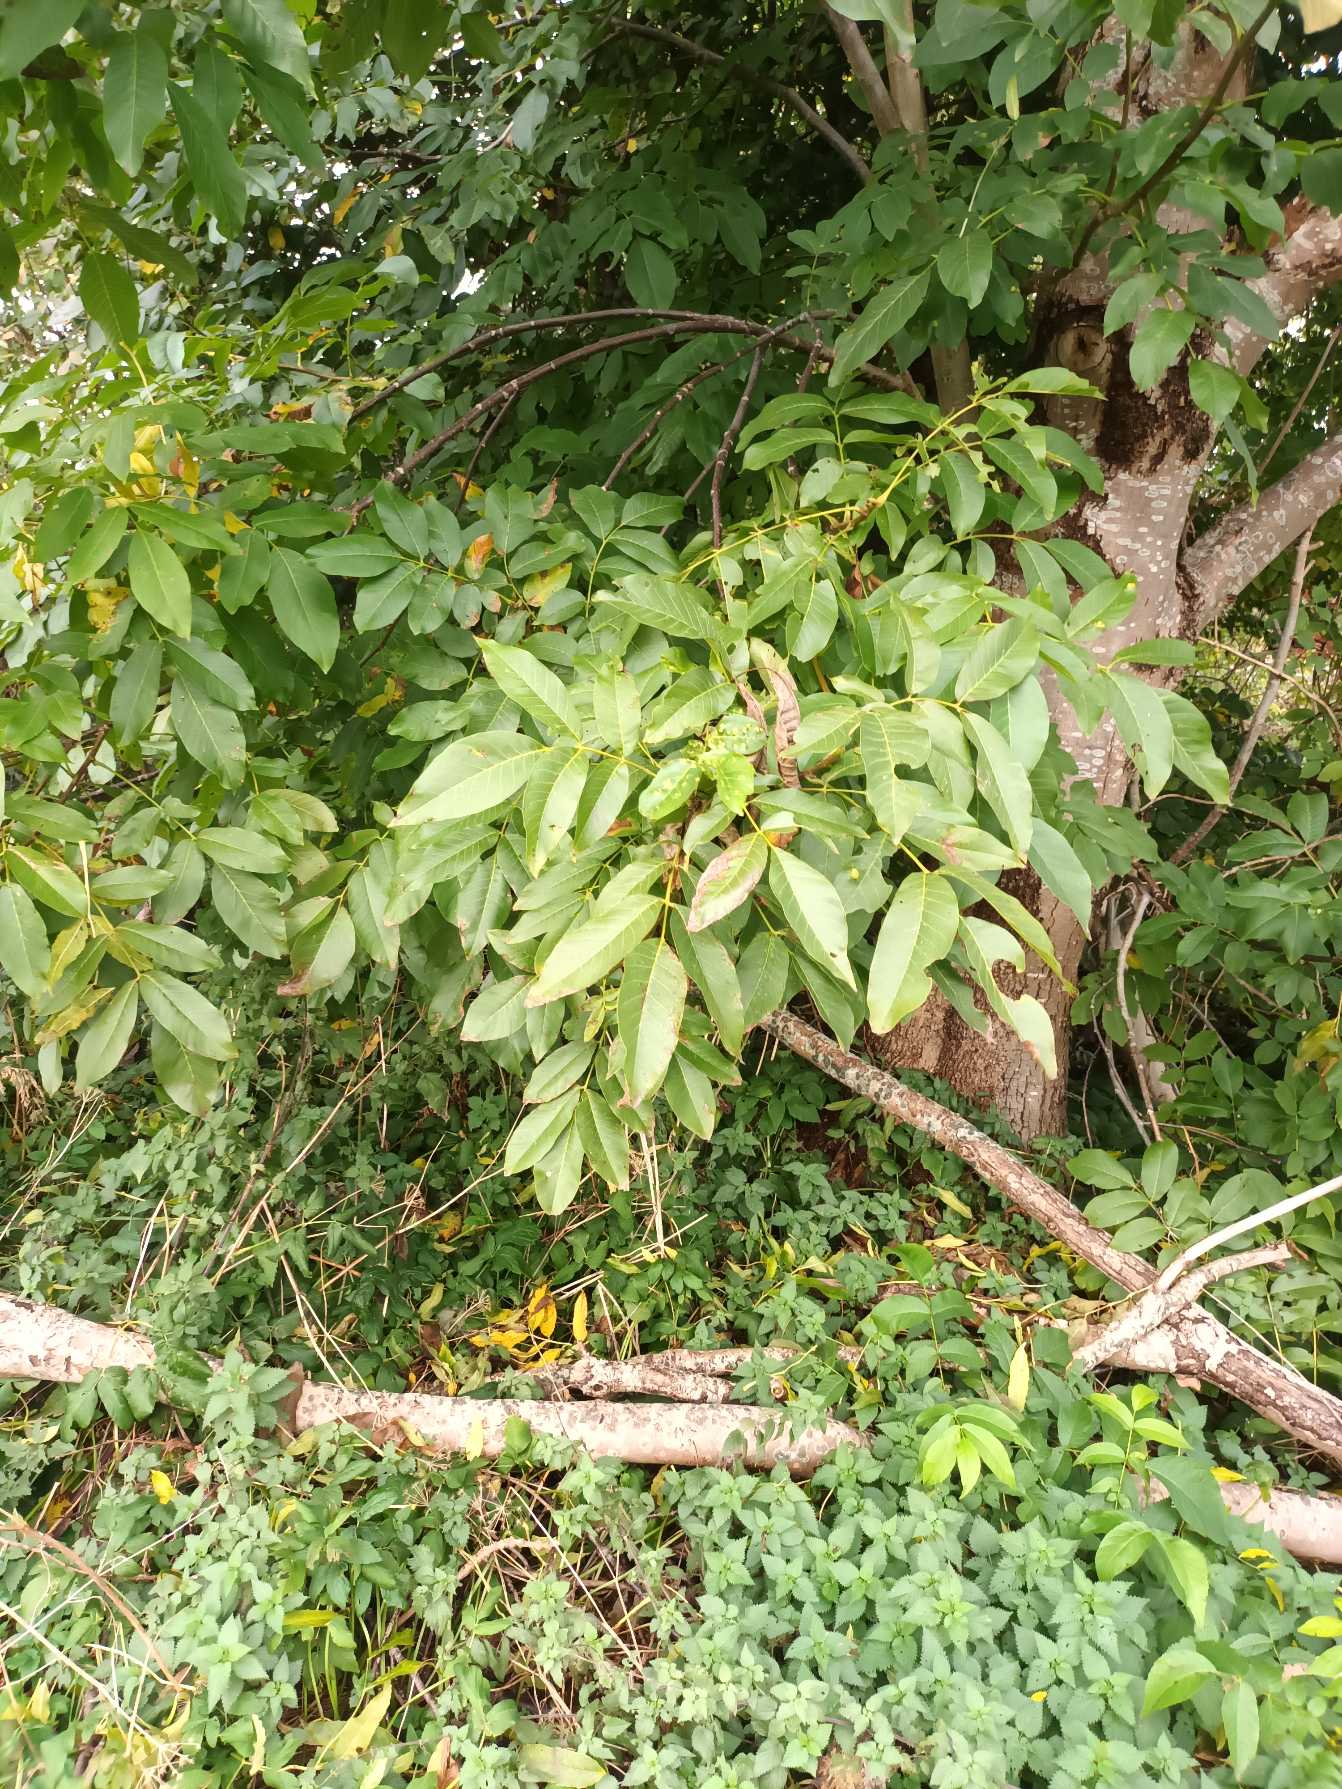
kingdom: Plantae
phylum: Tracheophyta
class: Magnoliopsida
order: Fagales
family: Juglandaceae
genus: Juglans
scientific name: Juglans regia
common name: Almindelig valnød
